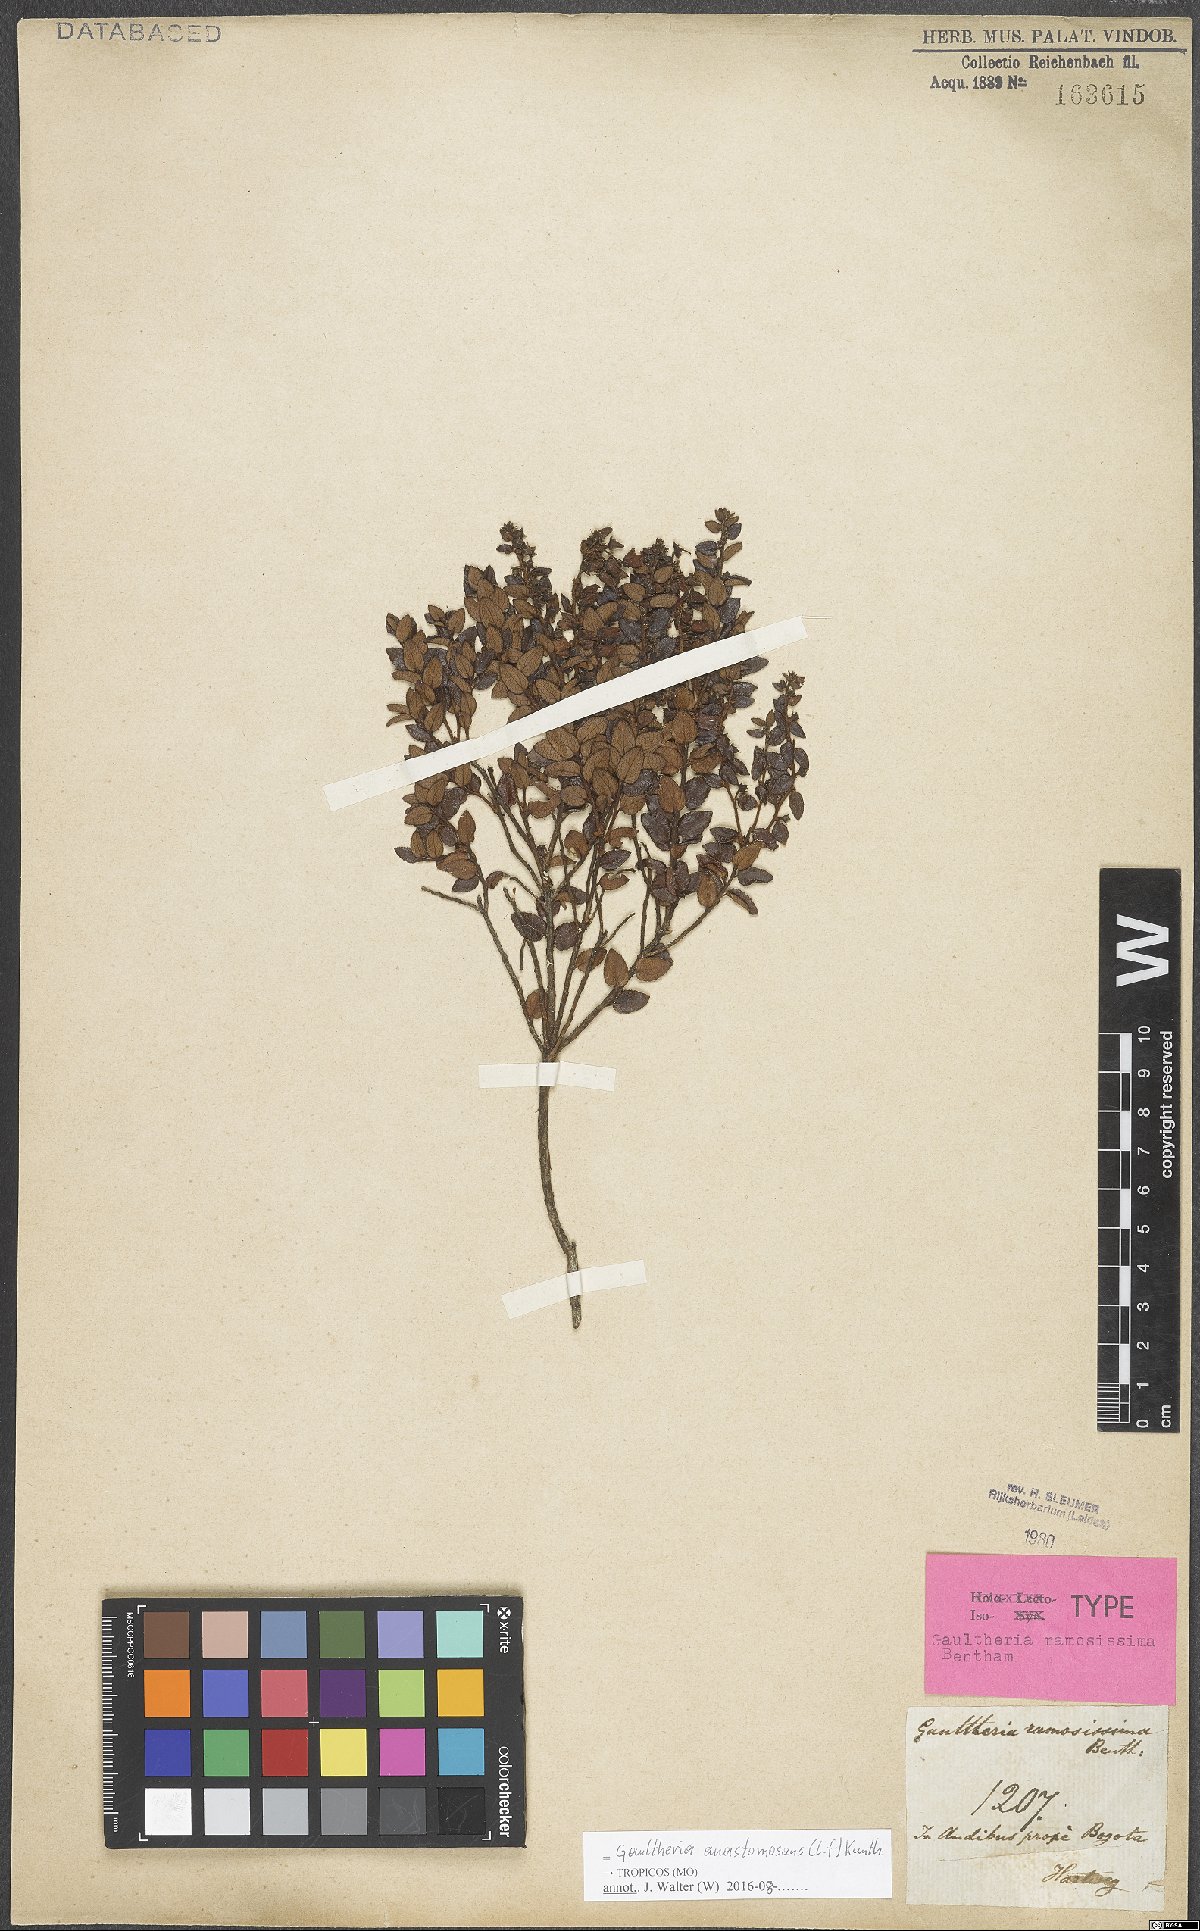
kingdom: Plantae
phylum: Tracheophyta
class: Magnoliopsida
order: Ericales
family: Ericaceae
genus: Gaultheria
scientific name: Gaultheria anastomosans
